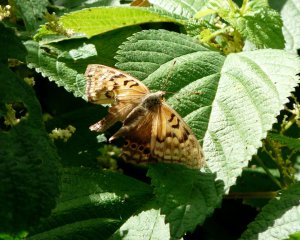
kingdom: Animalia
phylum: Arthropoda
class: Insecta
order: Lepidoptera
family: Nymphalidae
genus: Asterocampa
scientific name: Asterocampa clyton
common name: Tawny Emperor
